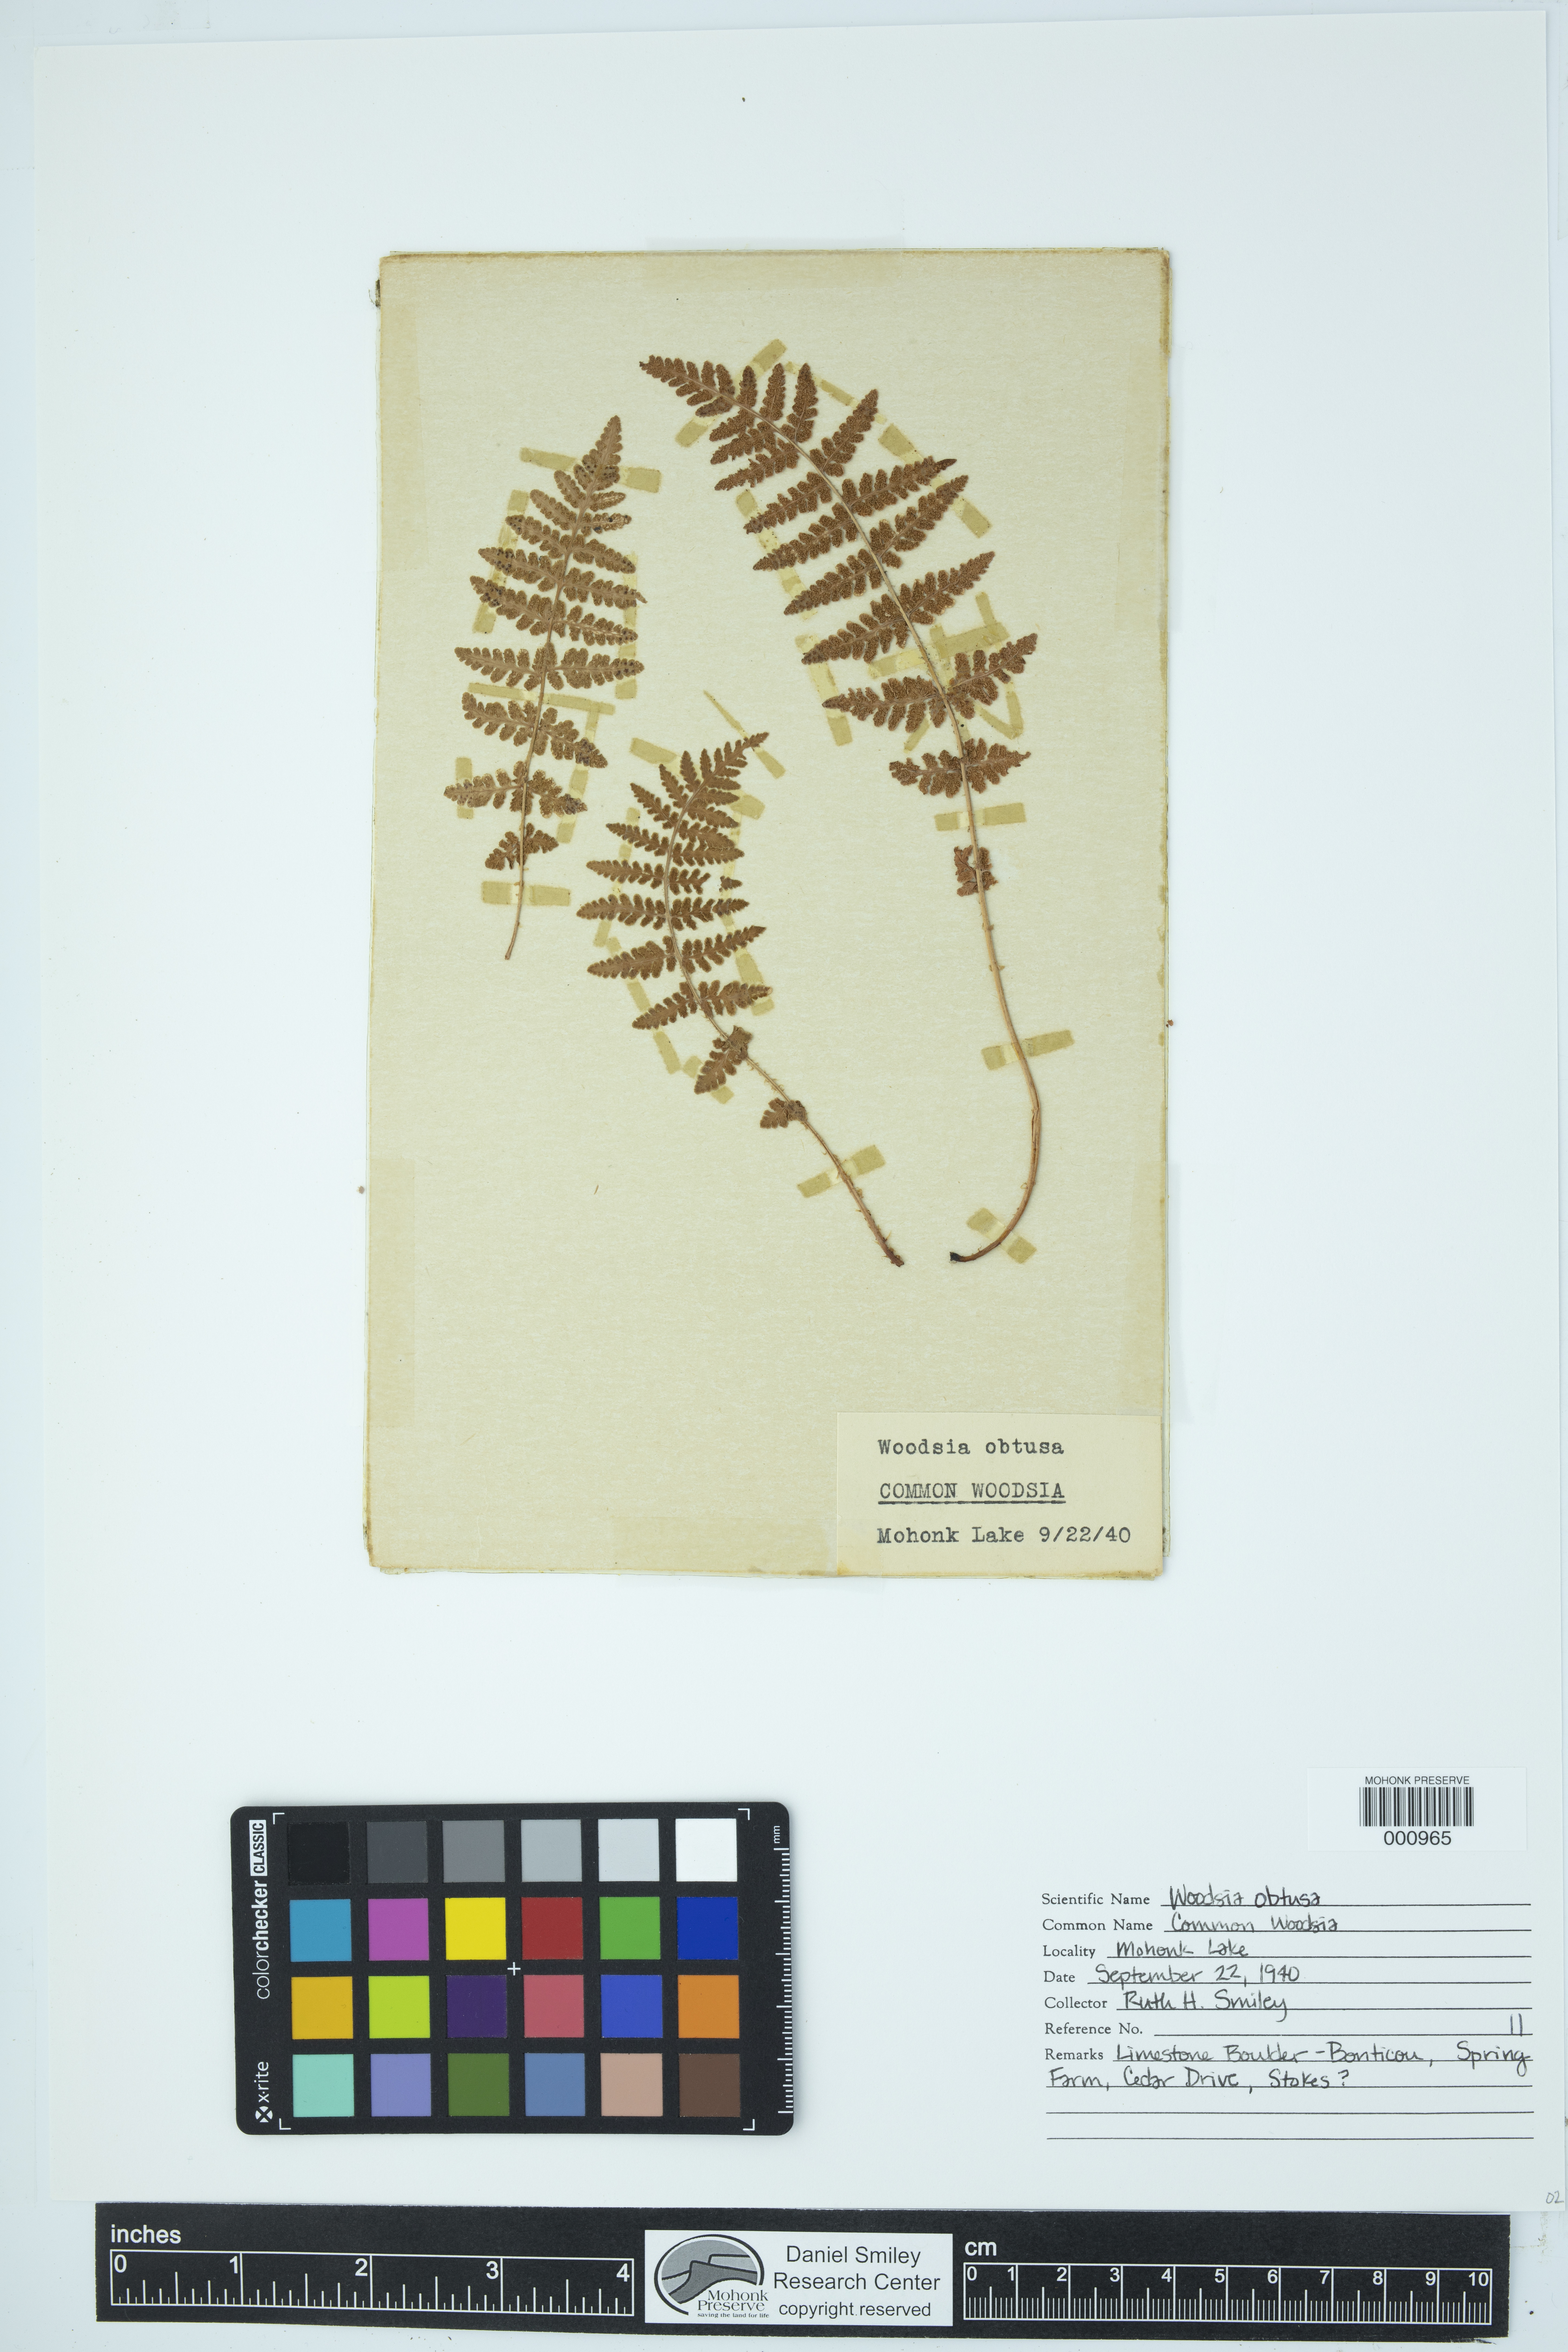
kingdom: Plantae
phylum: Tracheophyta
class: Polypodiopsida
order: Polypodiales
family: Woodsiaceae
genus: Physematium
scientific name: Physematium obtusum
